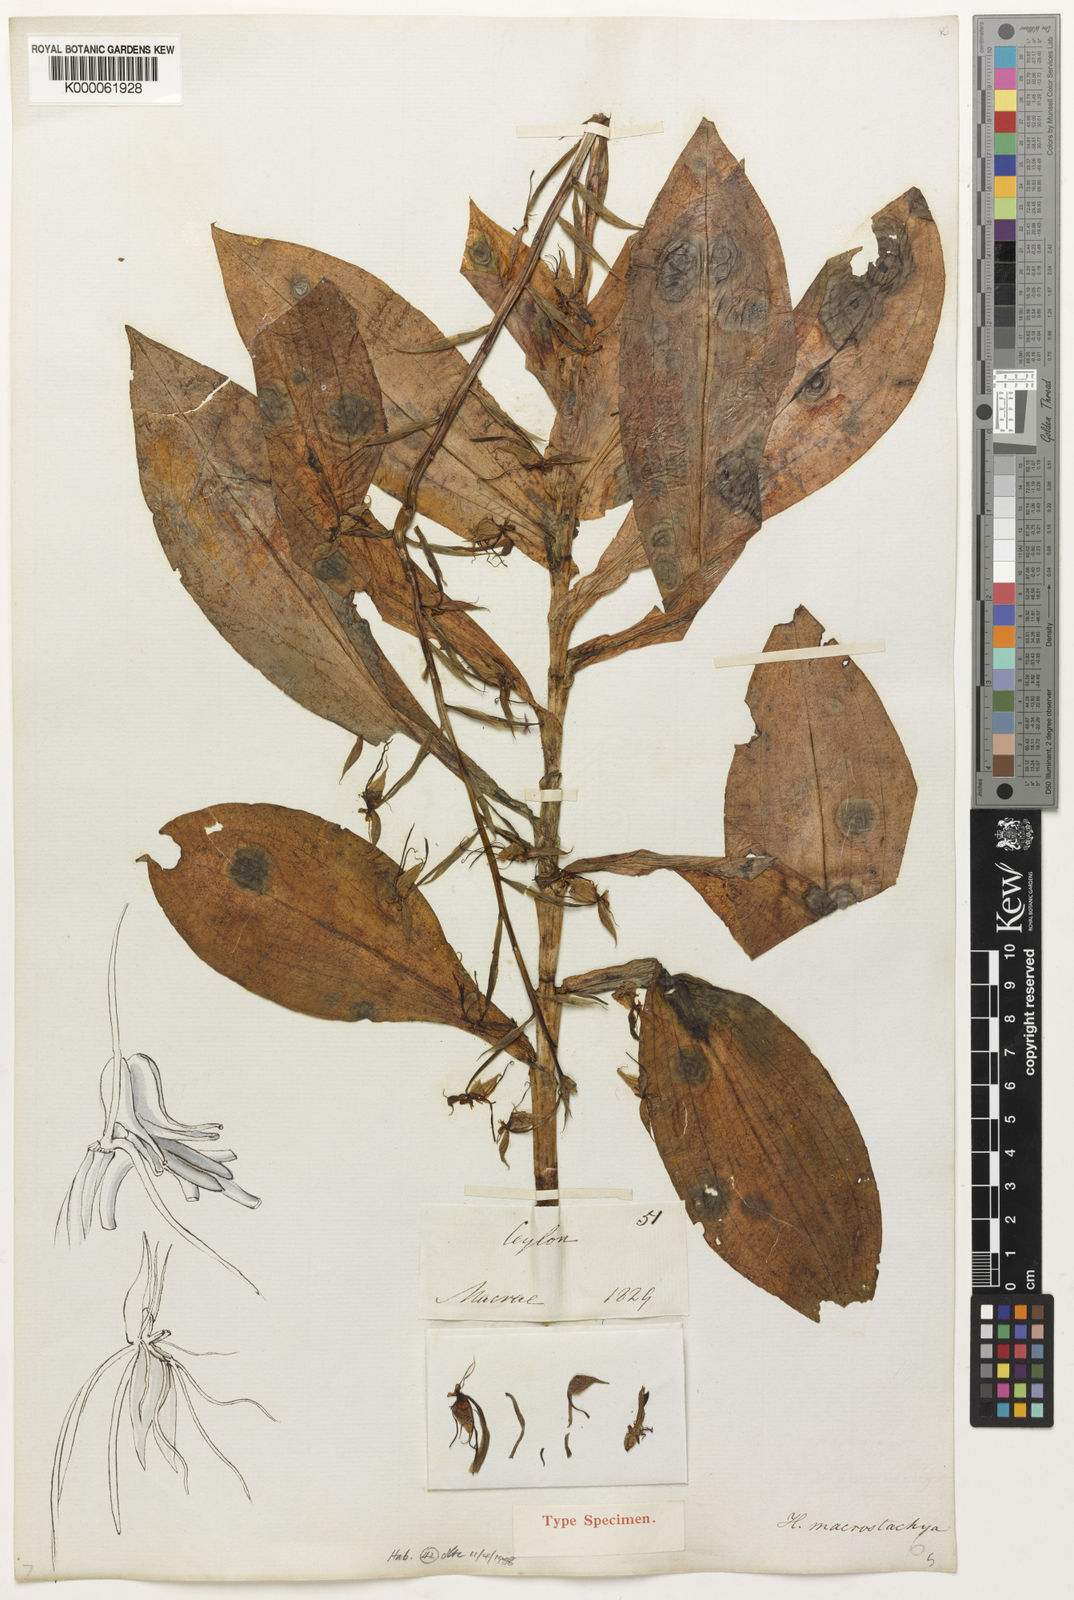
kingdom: Plantae
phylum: Tracheophyta
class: Liliopsida
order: Asparagales
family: Orchidaceae
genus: Habenaria
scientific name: Habenaria macrostachya
